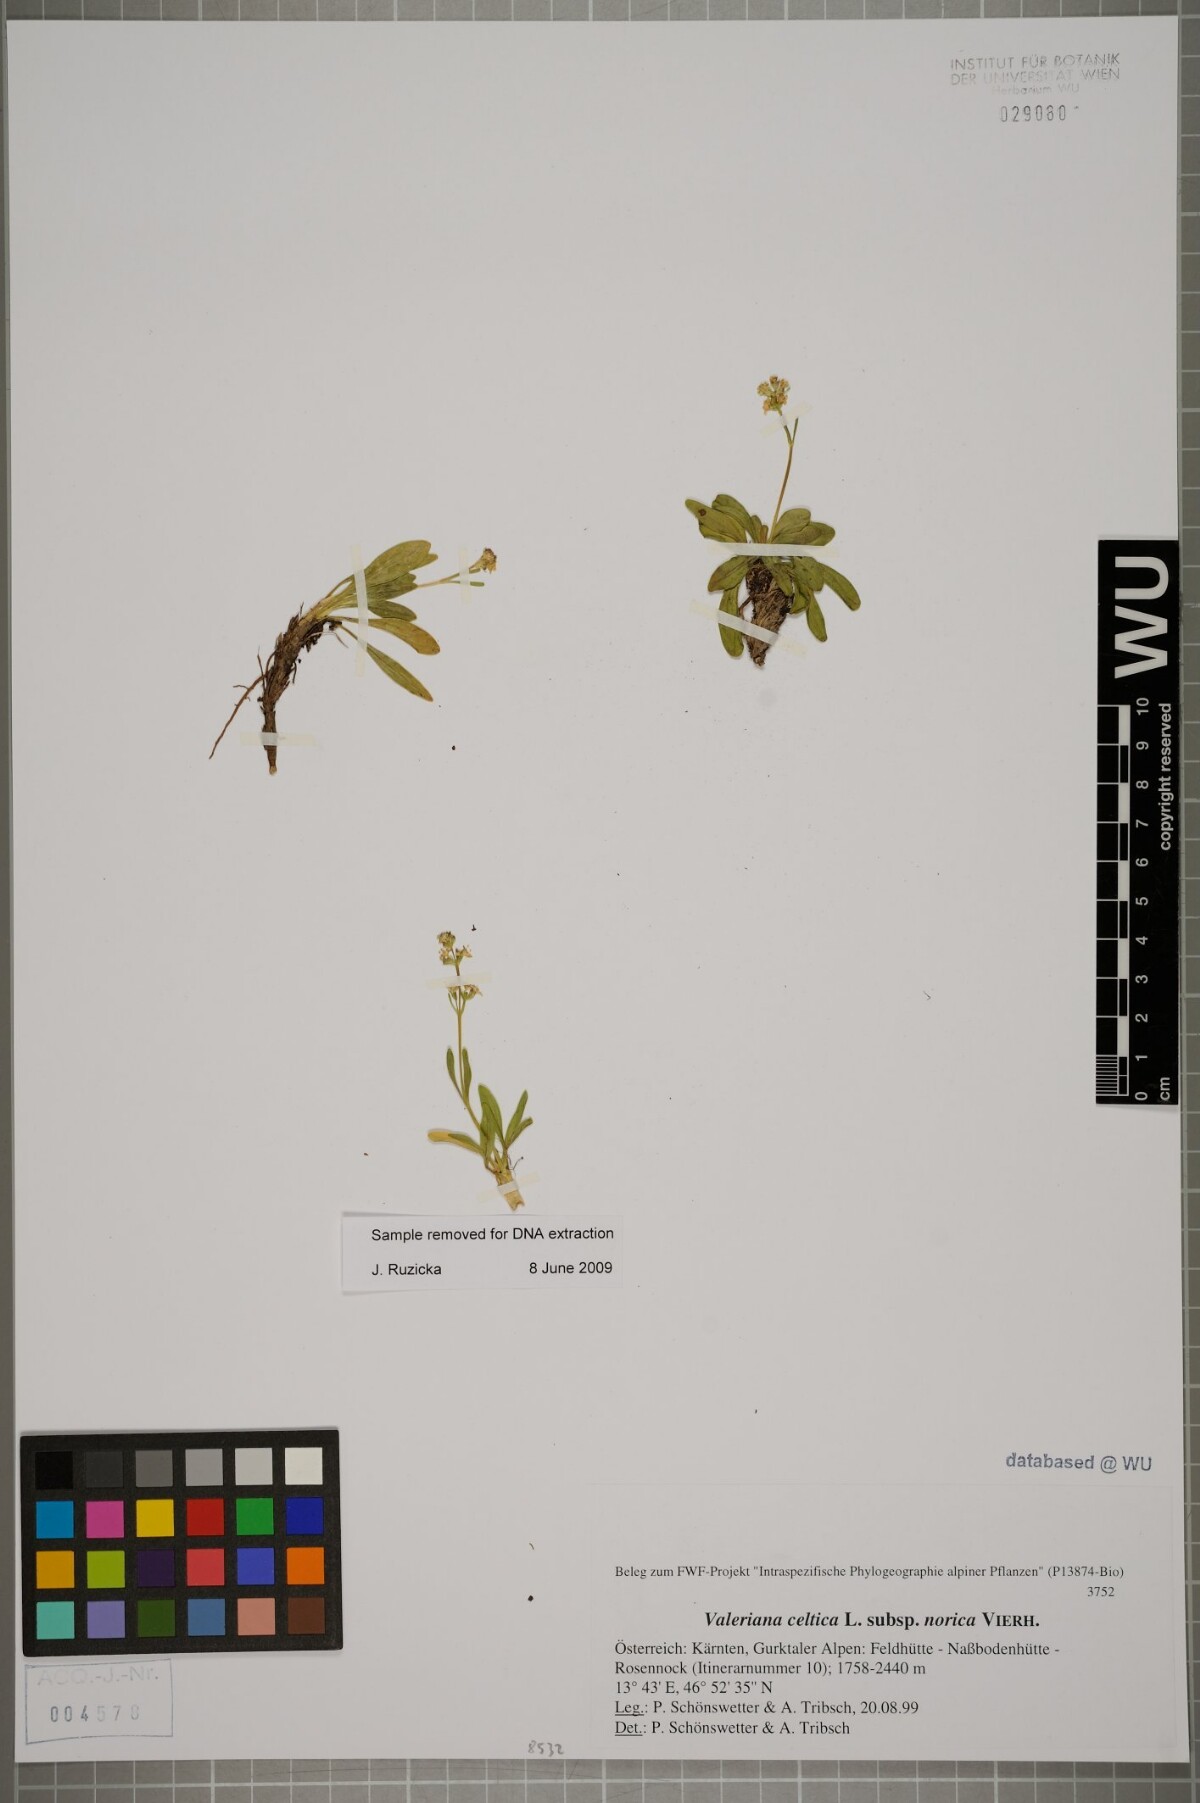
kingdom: Plantae
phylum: Tracheophyta
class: Magnoliopsida
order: Dipsacales
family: Caprifoliaceae
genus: Valeriana
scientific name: Valeriana celtica
